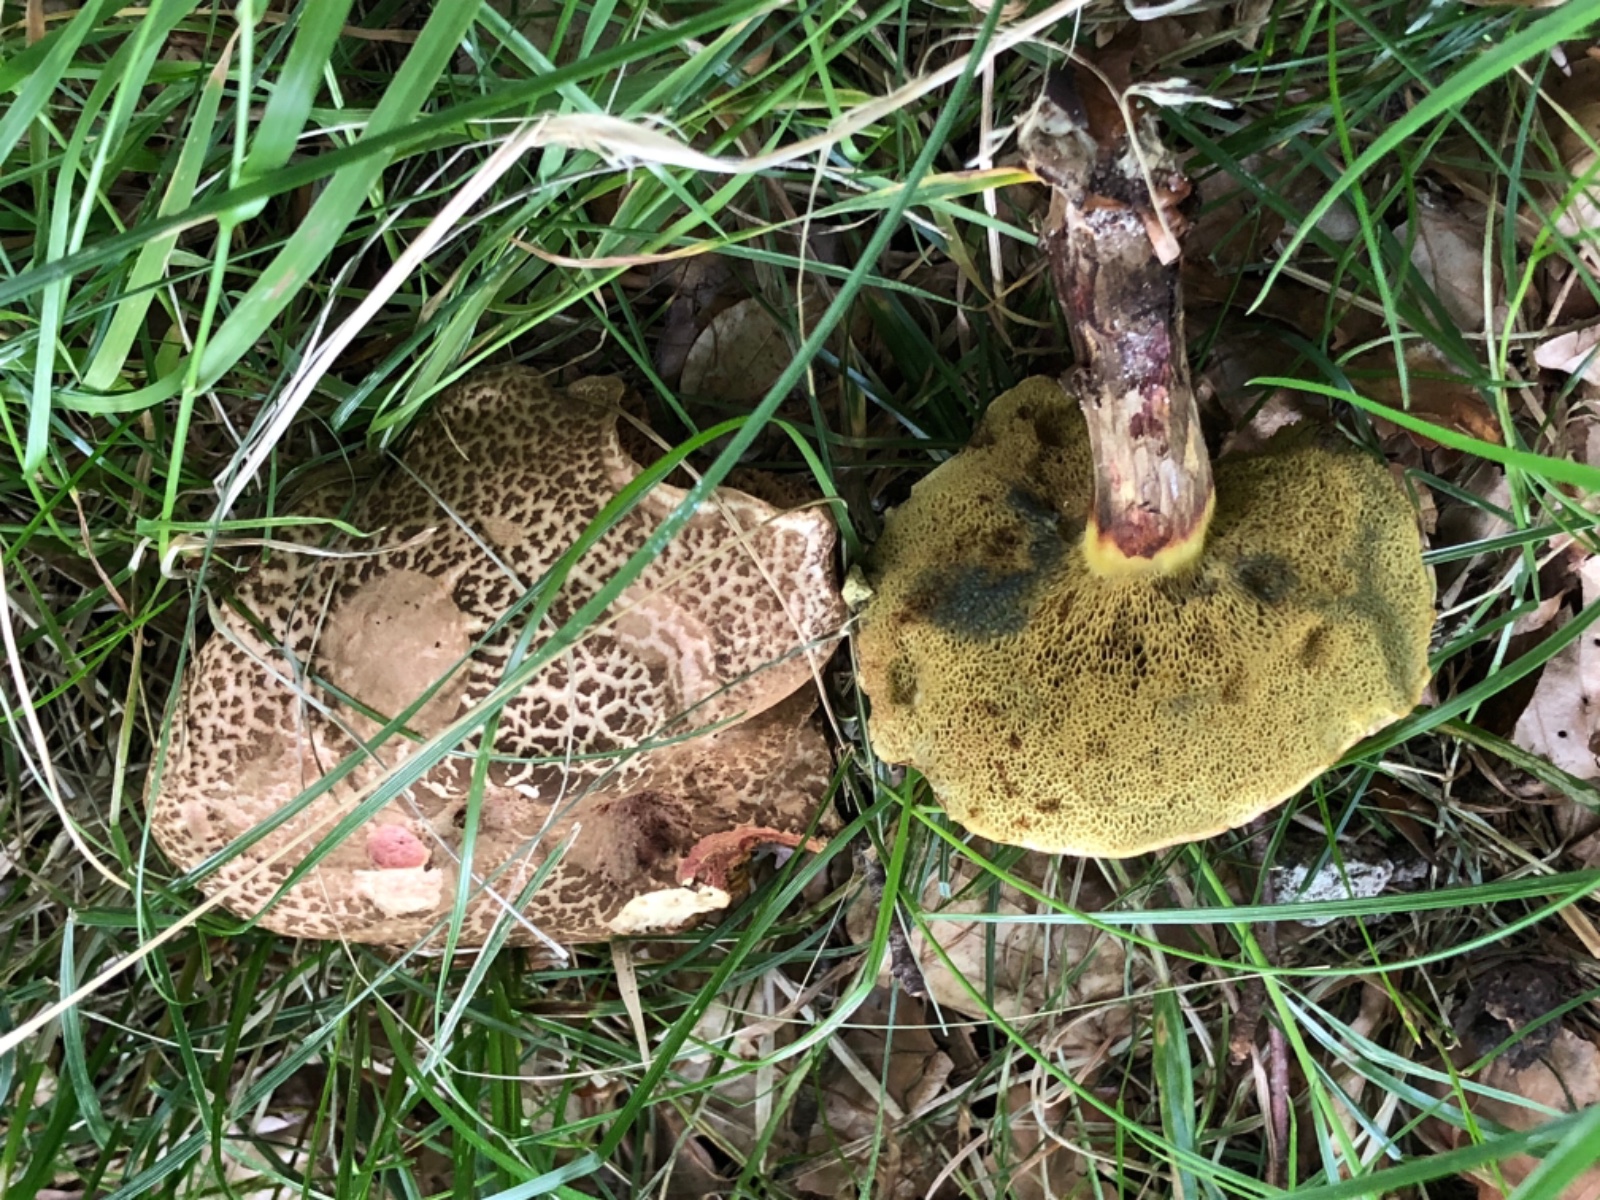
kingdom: Fungi
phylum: Basidiomycota
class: Agaricomycetes
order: Boletales
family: Boletaceae
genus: Xerocomellus
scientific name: Xerocomellus chrysenteron
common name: rødsprukken rørhat
